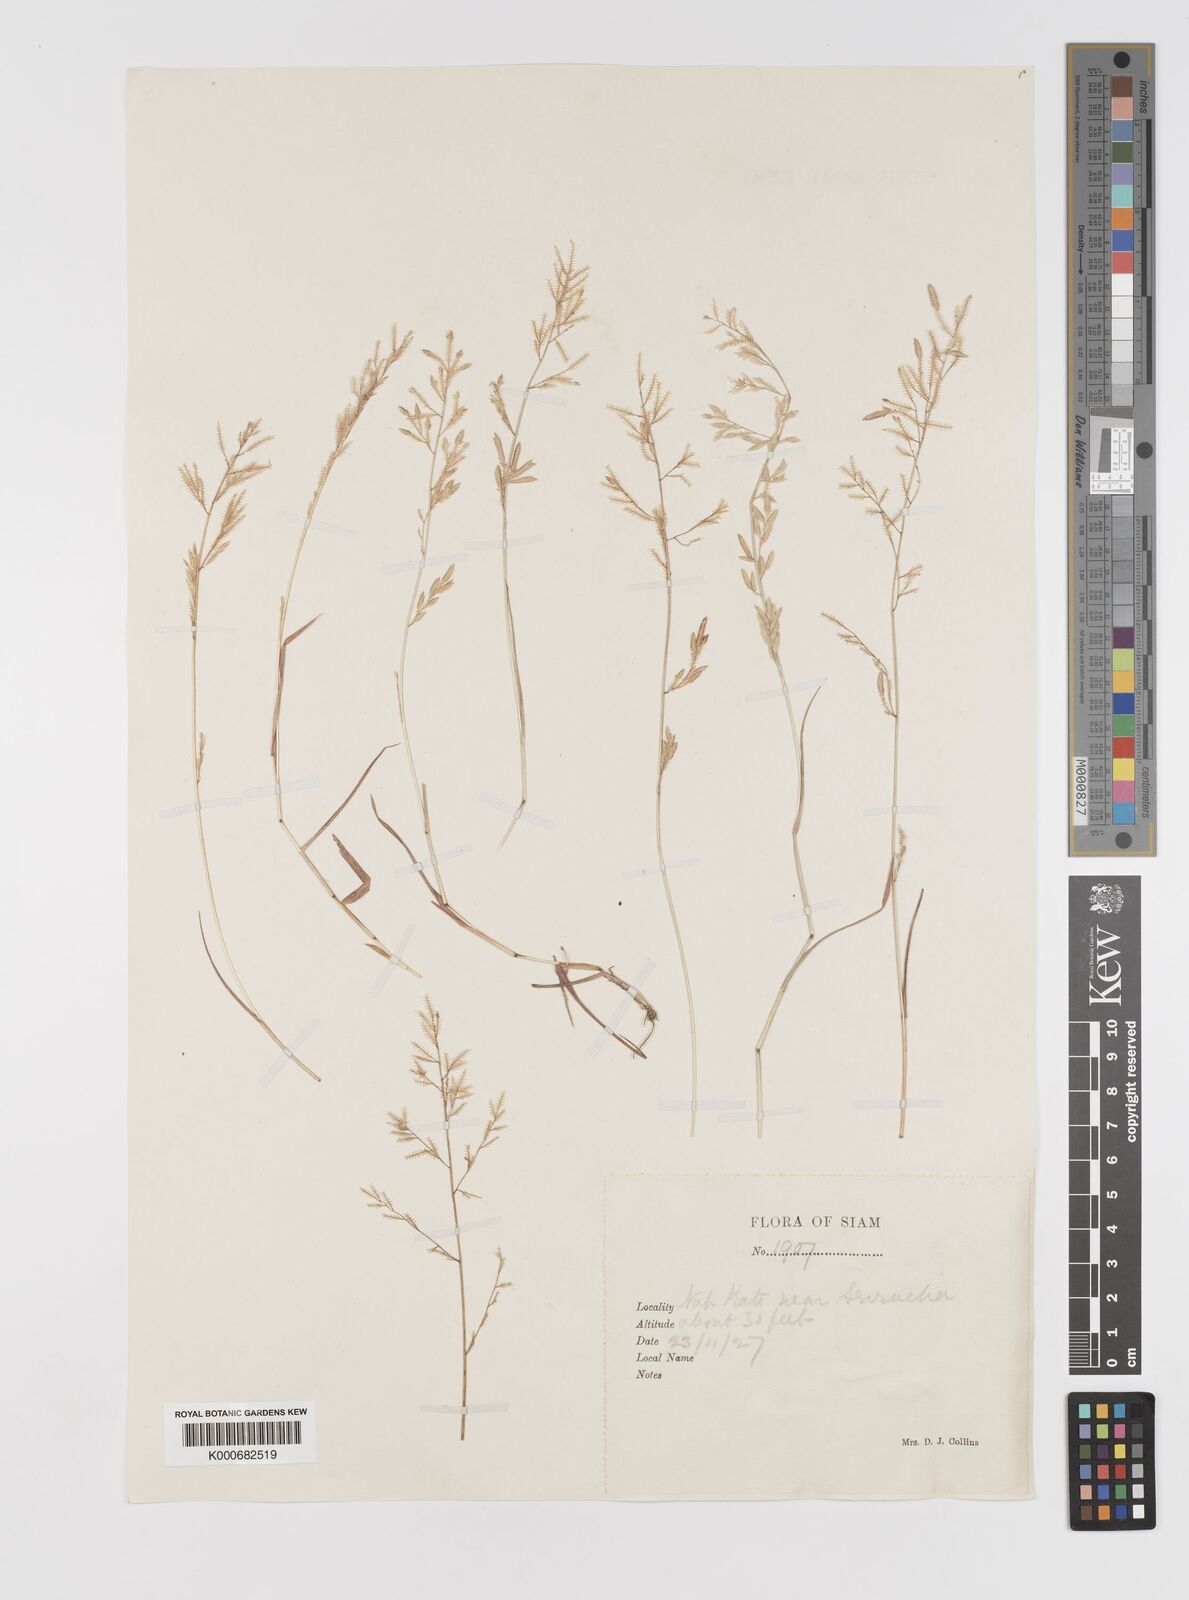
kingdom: Plantae
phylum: Tracheophyta
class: Liliopsida
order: Poales
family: Poaceae
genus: Eragrostis
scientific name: Eragrostis subsecunda
